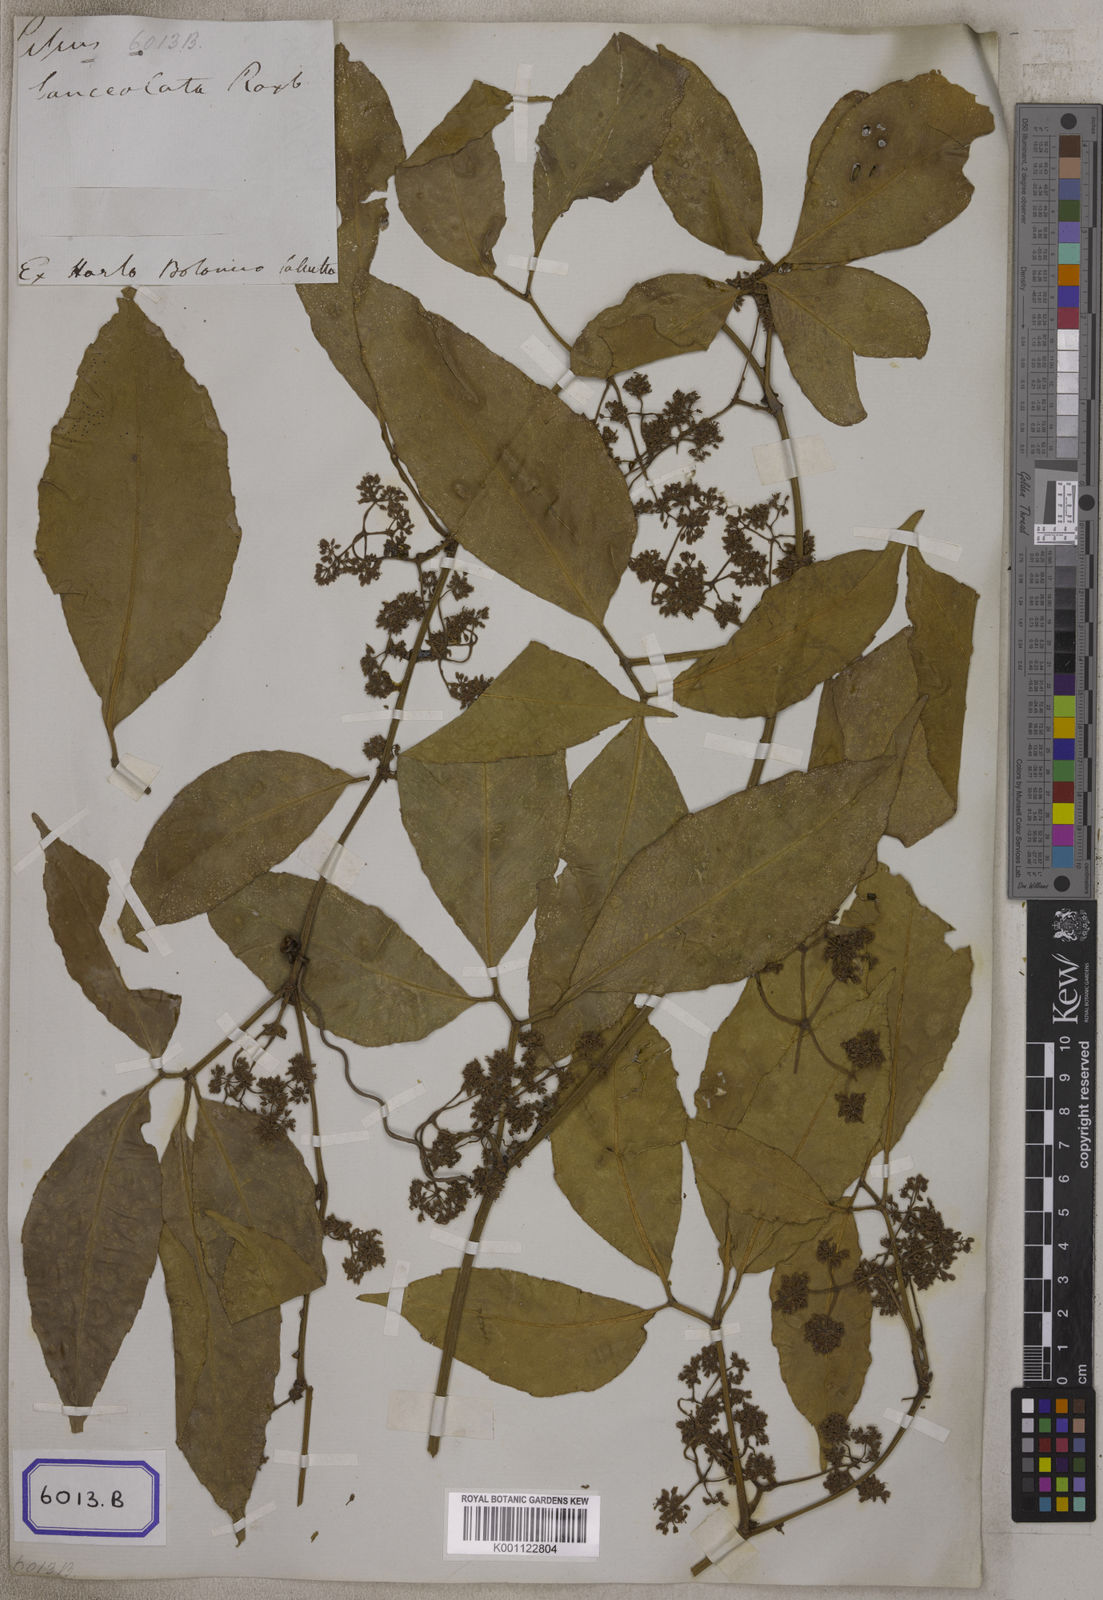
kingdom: Plantae
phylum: Tracheophyta
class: Magnoliopsida
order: Vitales
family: Vitaceae
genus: Vitis
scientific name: Vitis
